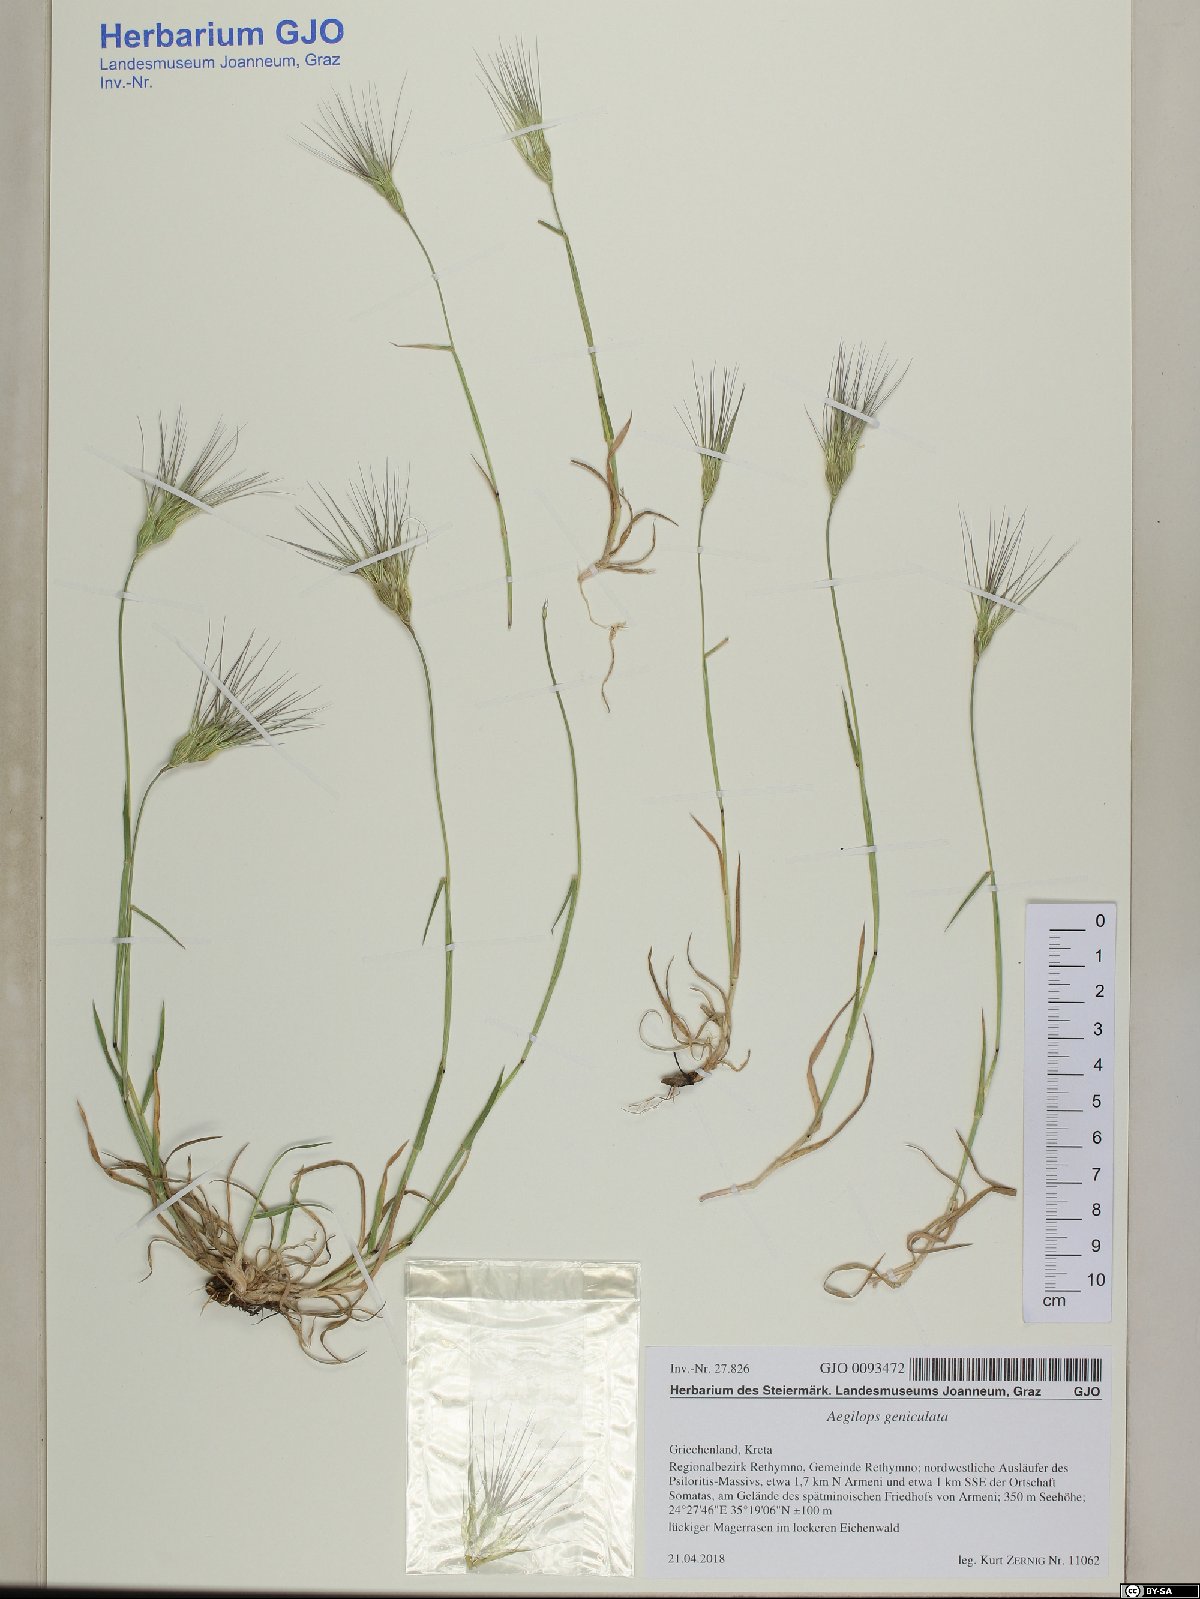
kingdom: Plantae
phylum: Tracheophyta
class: Liliopsida
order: Poales
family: Poaceae
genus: Aegilops
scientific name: Aegilops geniculata
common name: Ovate goat grass
